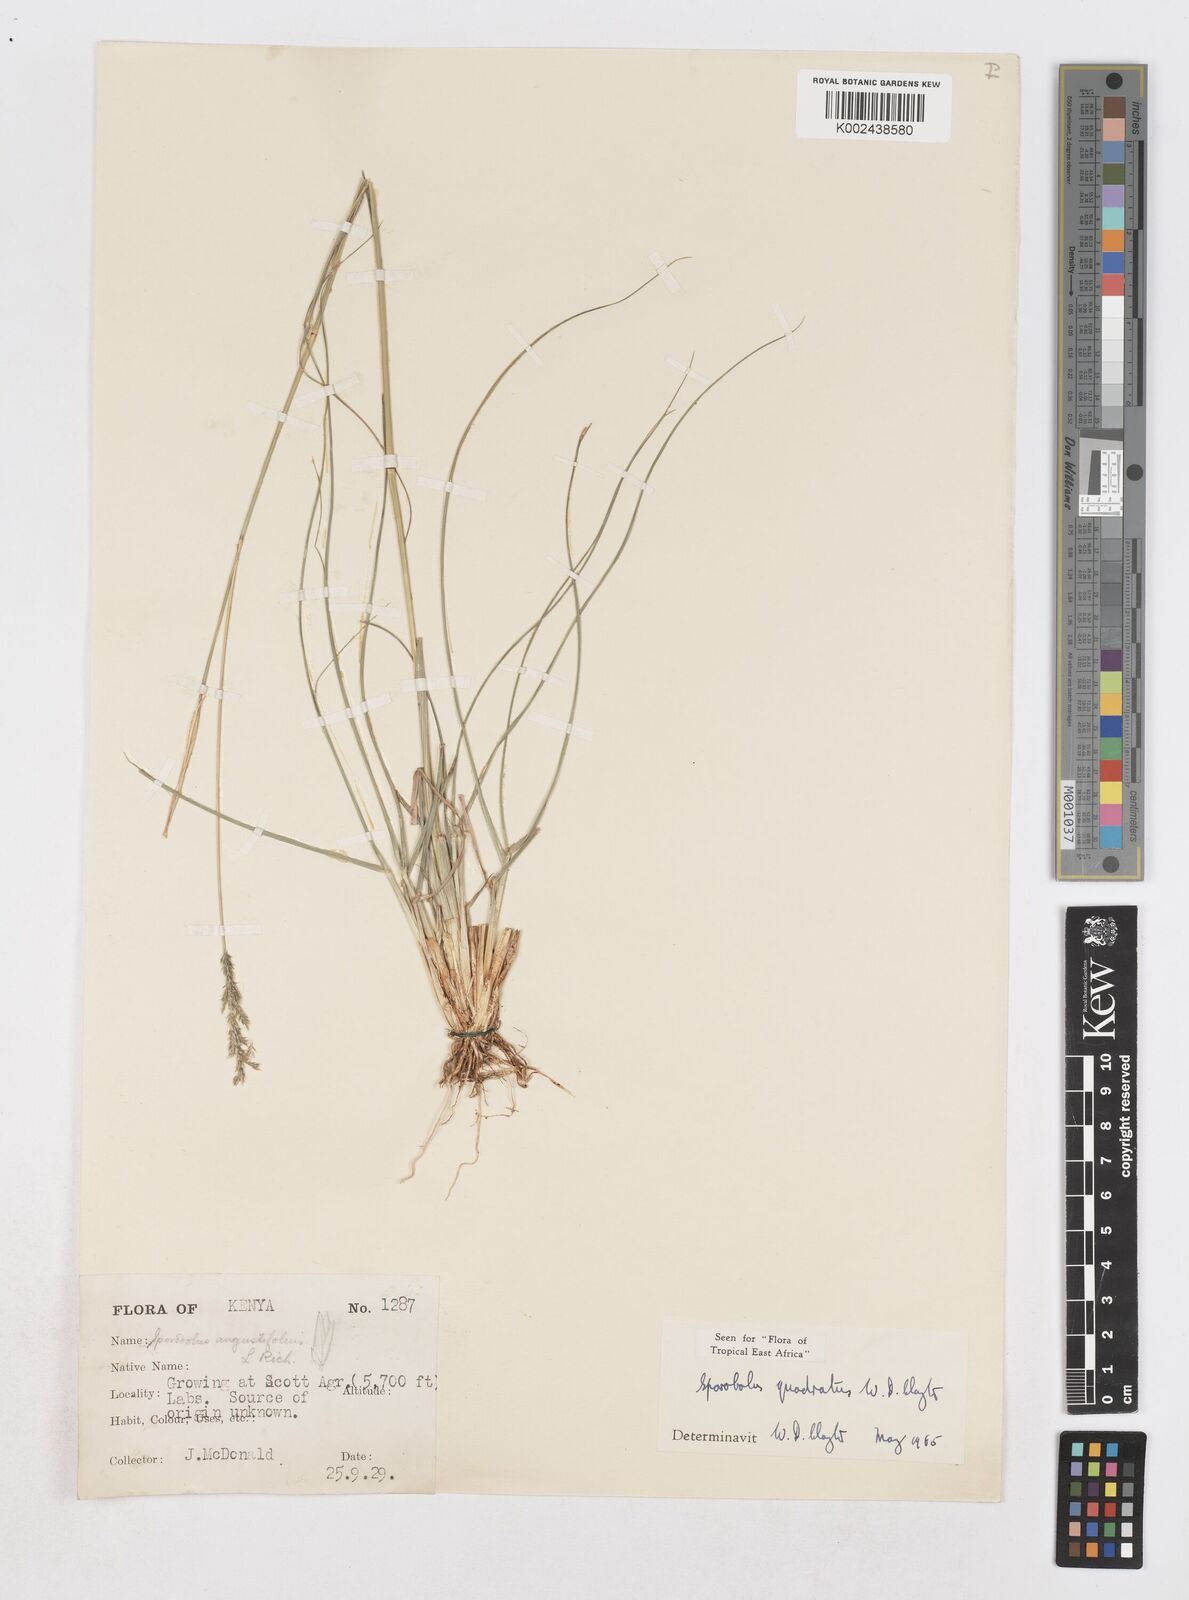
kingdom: Plantae
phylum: Tracheophyta
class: Liliopsida
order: Poales
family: Poaceae
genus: Sporobolus
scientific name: Sporobolus quadratus
